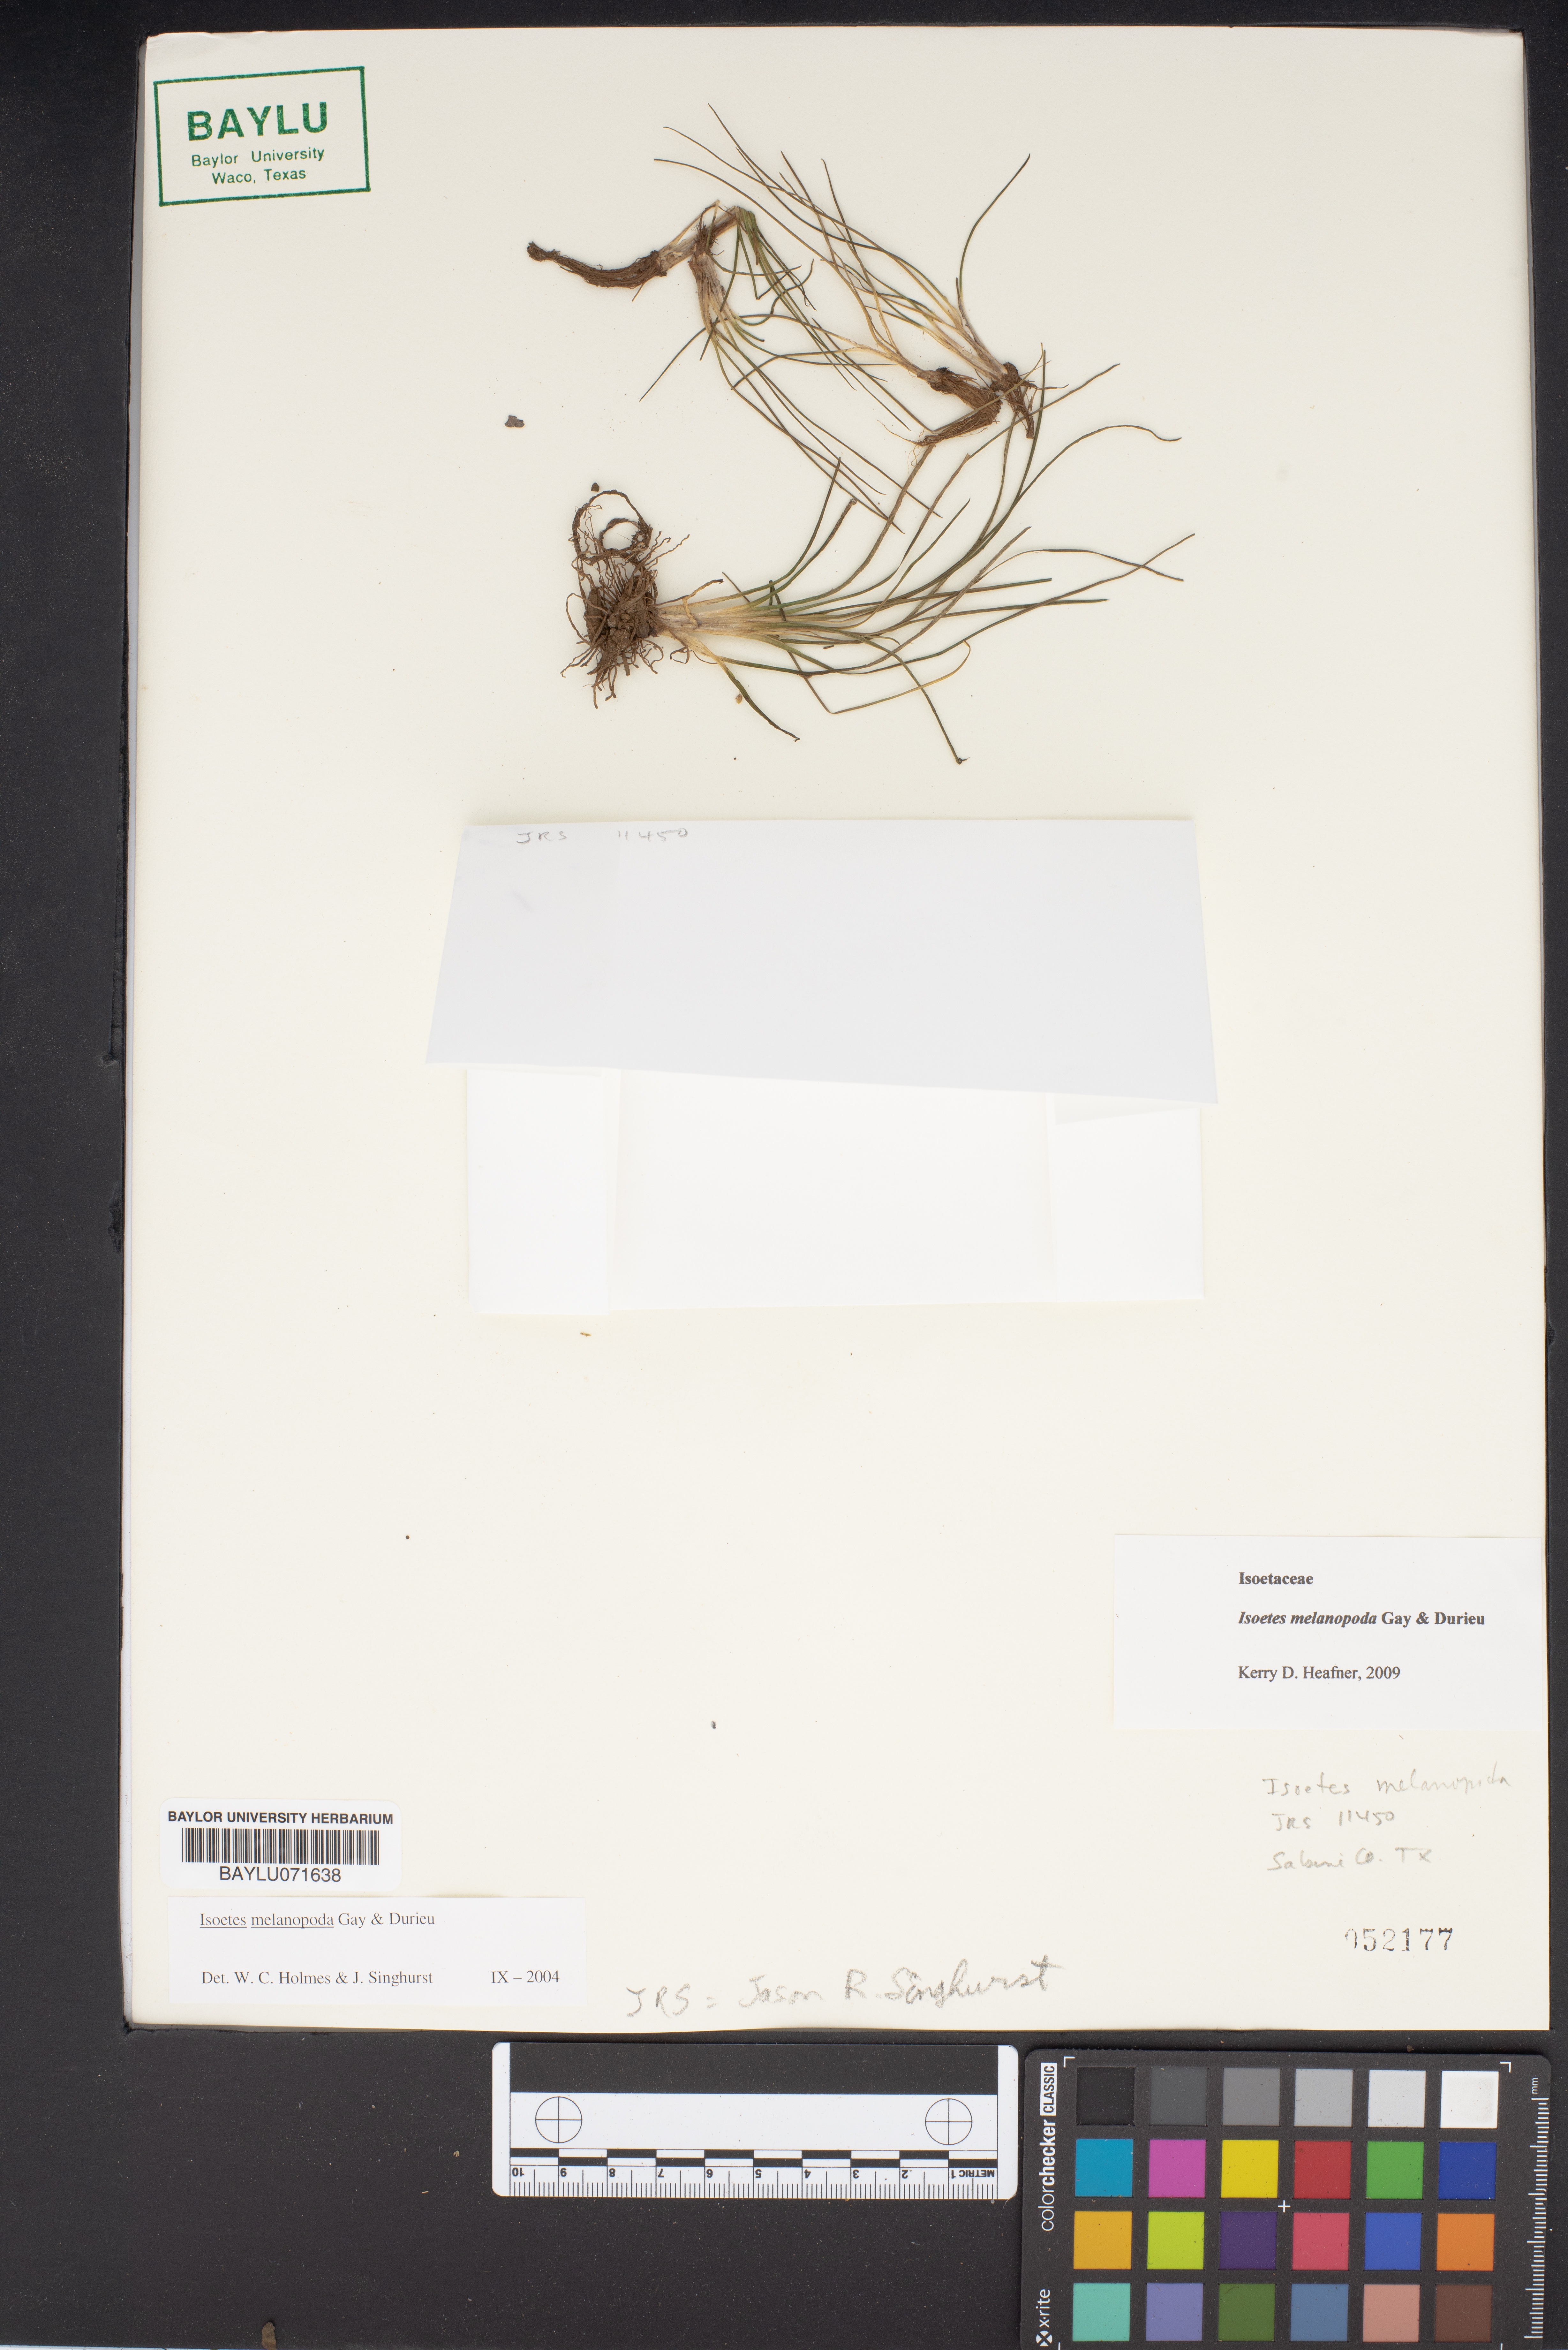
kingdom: Plantae
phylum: Tracheophyta
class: Lycopodiopsida
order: Isoetales
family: Isoetaceae
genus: Isoetes
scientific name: Isoetes melanopoda
